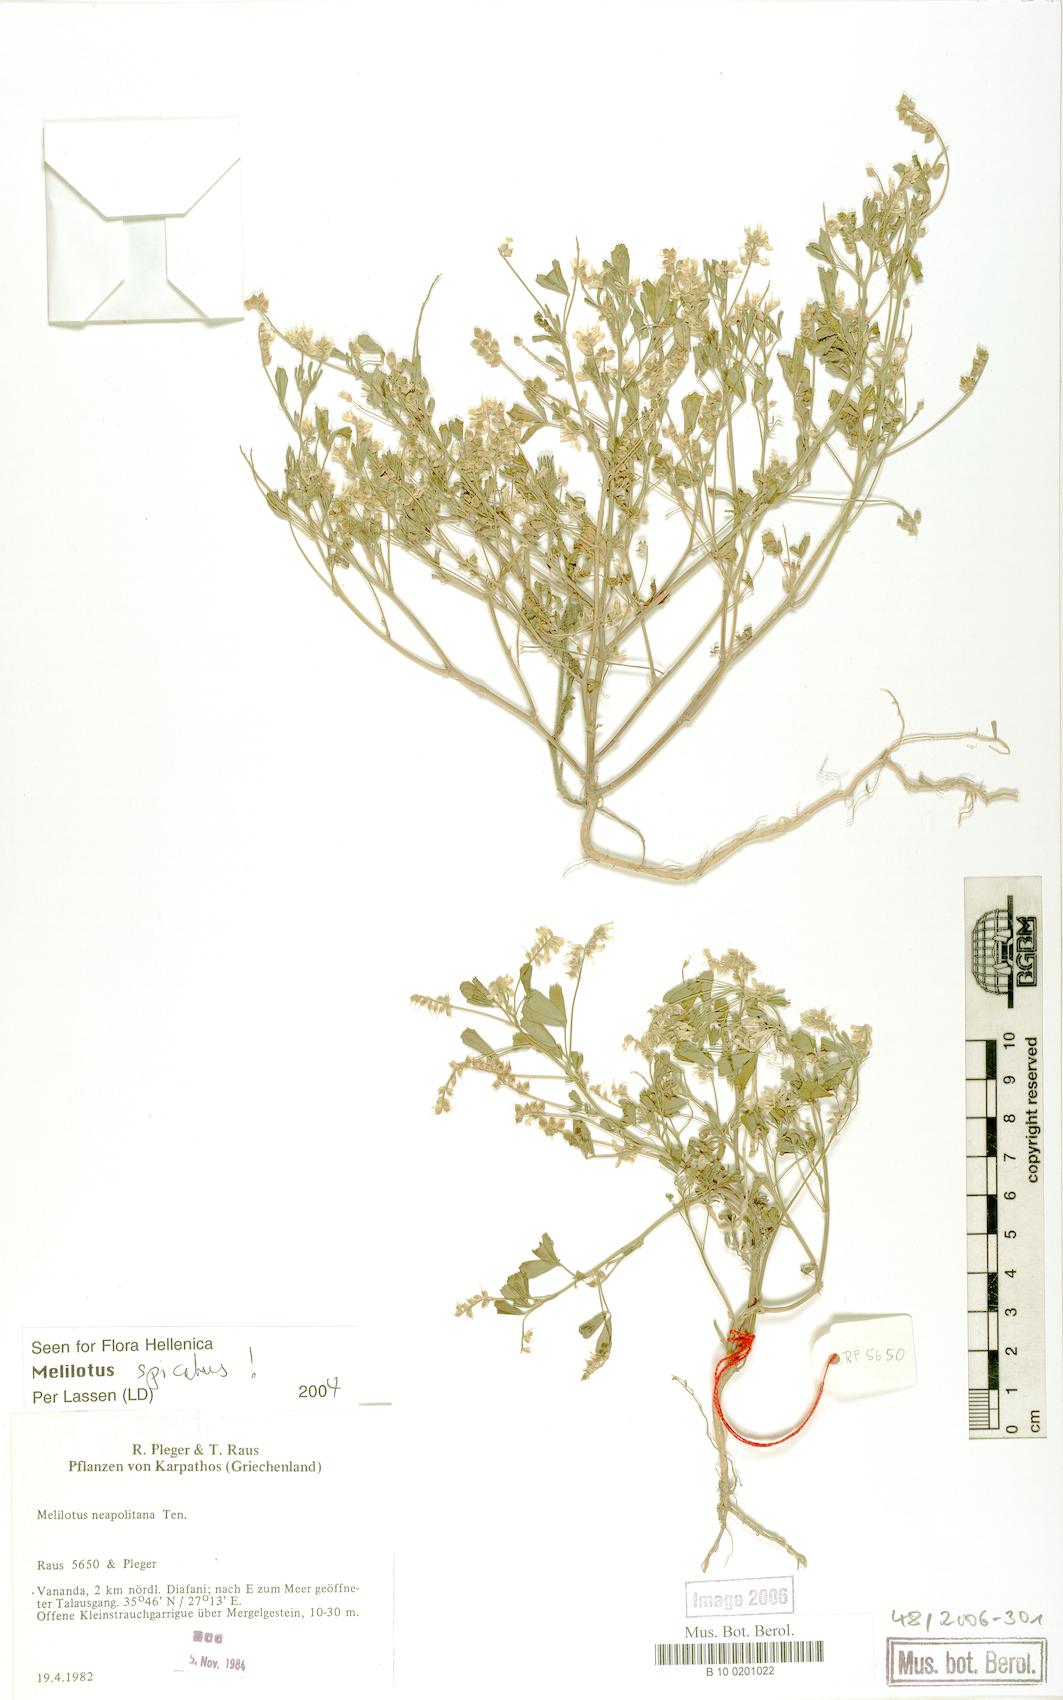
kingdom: Plantae
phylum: Tracheophyta
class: Magnoliopsida
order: Fabales
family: Fabaceae
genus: Melilotus
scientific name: Melilotus neapolitanus
